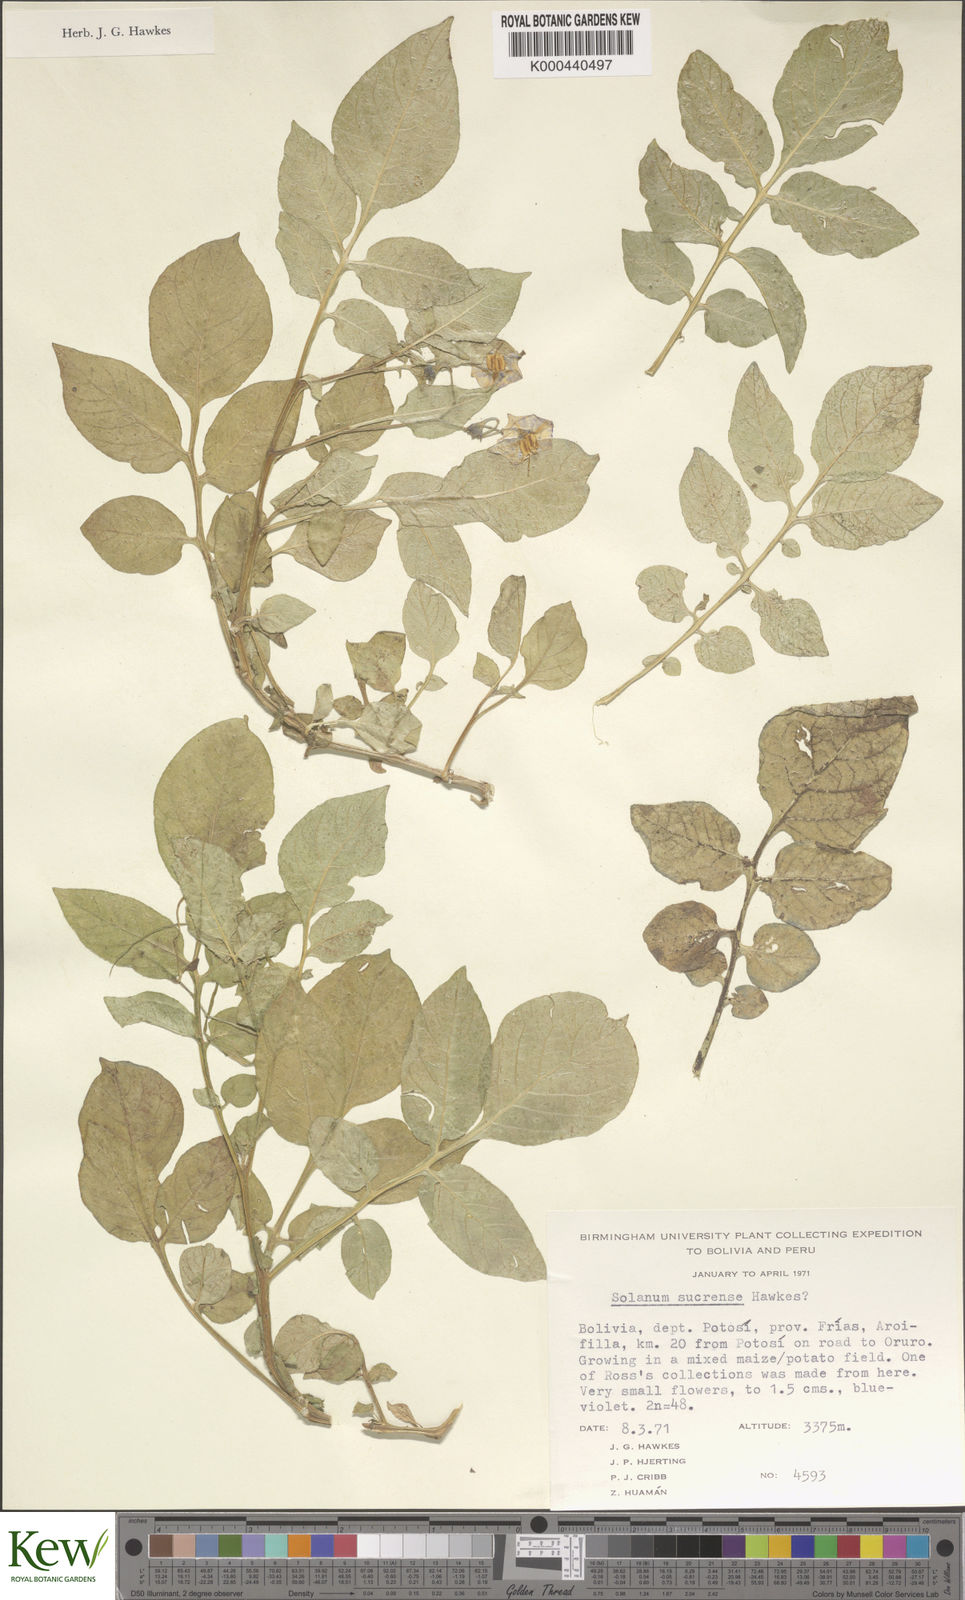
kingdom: Plantae
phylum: Tracheophyta
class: Magnoliopsida
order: Solanales
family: Solanaceae
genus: Solanum
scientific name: Solanum brevicaule
